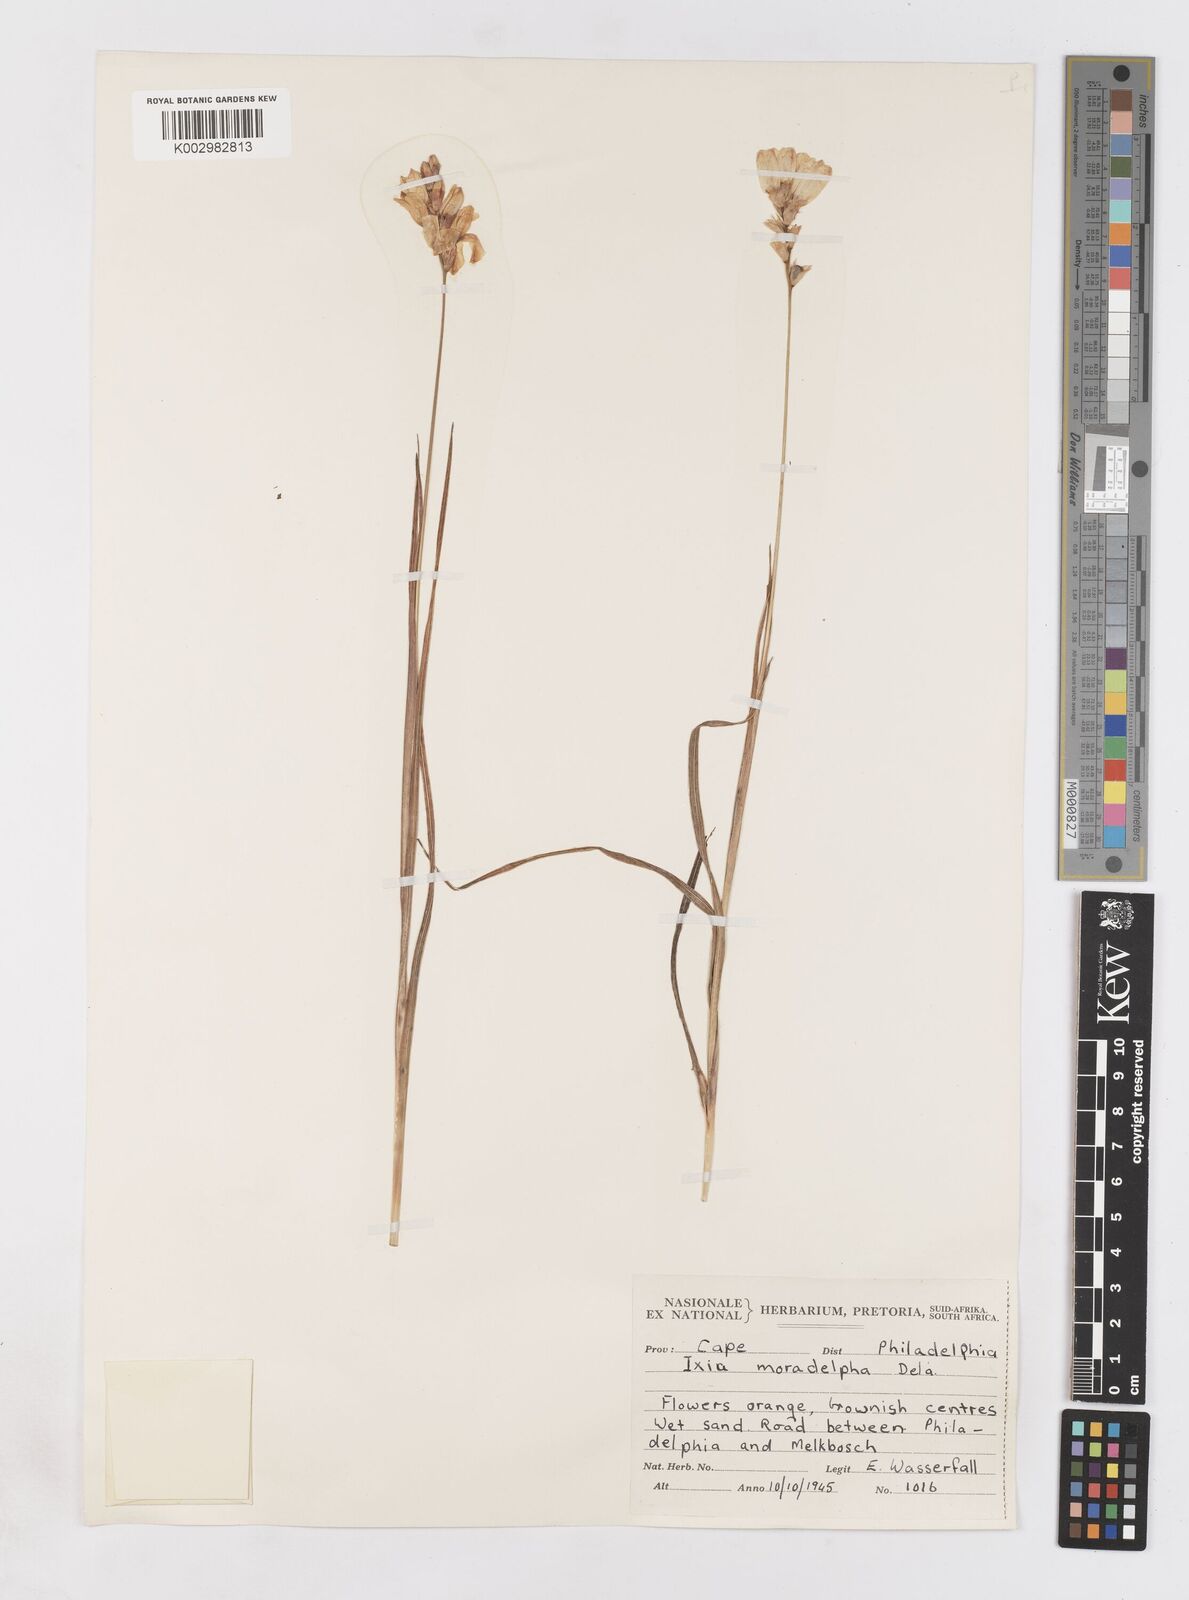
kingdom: Plantae
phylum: Tracheophyta
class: Liliopsida
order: Asparagales
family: Iridaceae
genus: Ixia
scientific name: Ixia monadelpha
